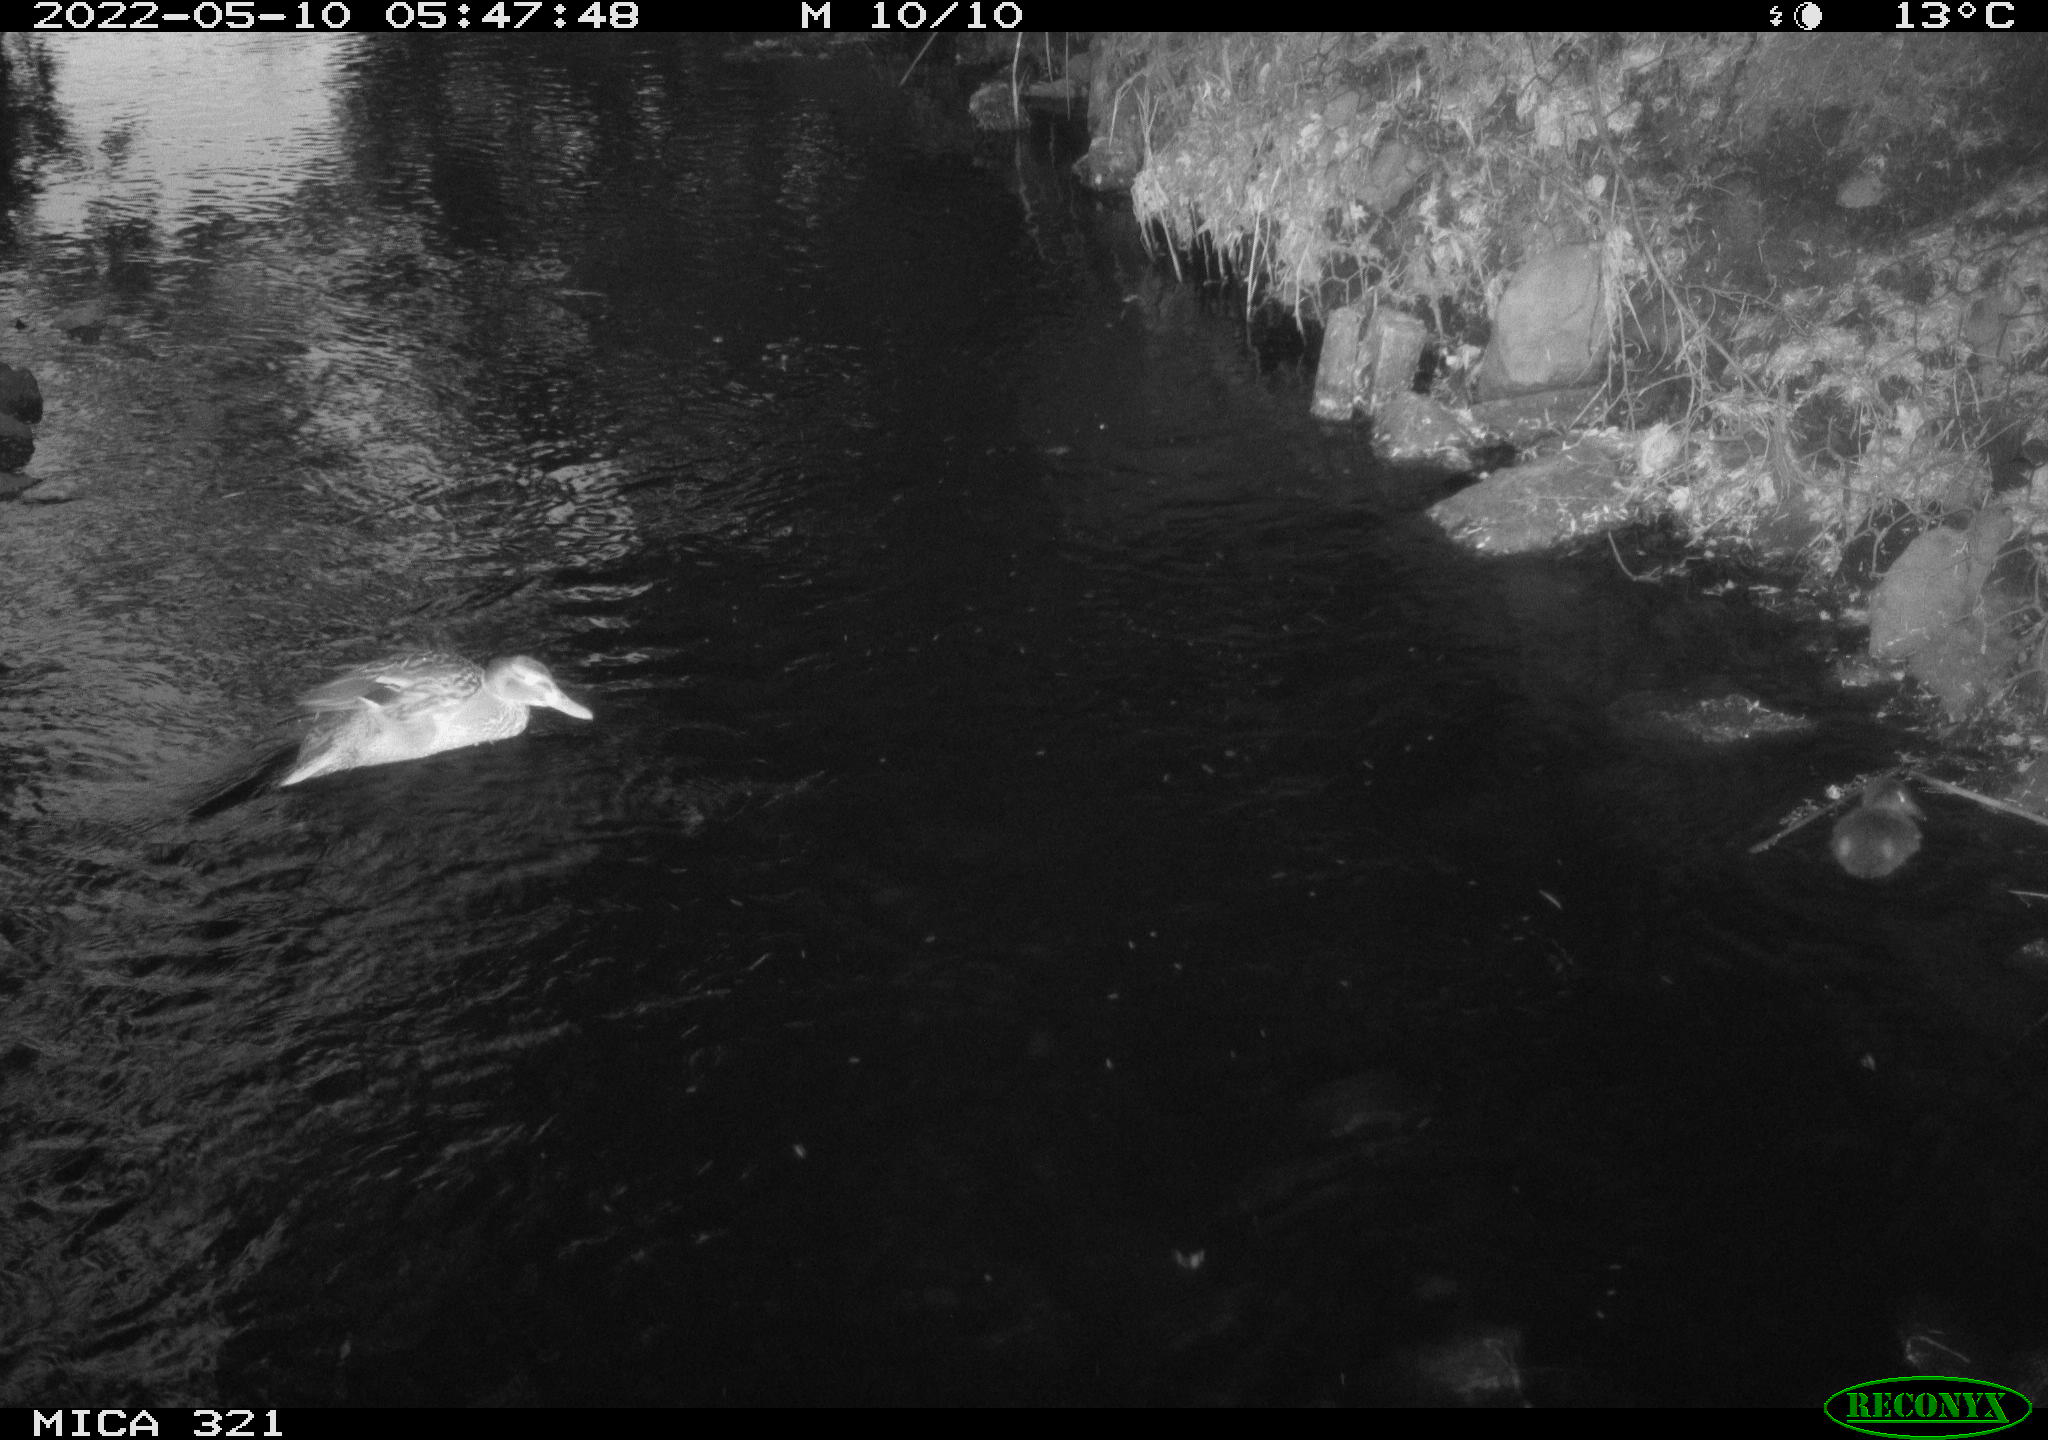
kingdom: Animalia
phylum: Chordata
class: Aves
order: Anseriformes
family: Anatidae
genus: Anas
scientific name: Anas platyrhynchos
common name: Mallard
